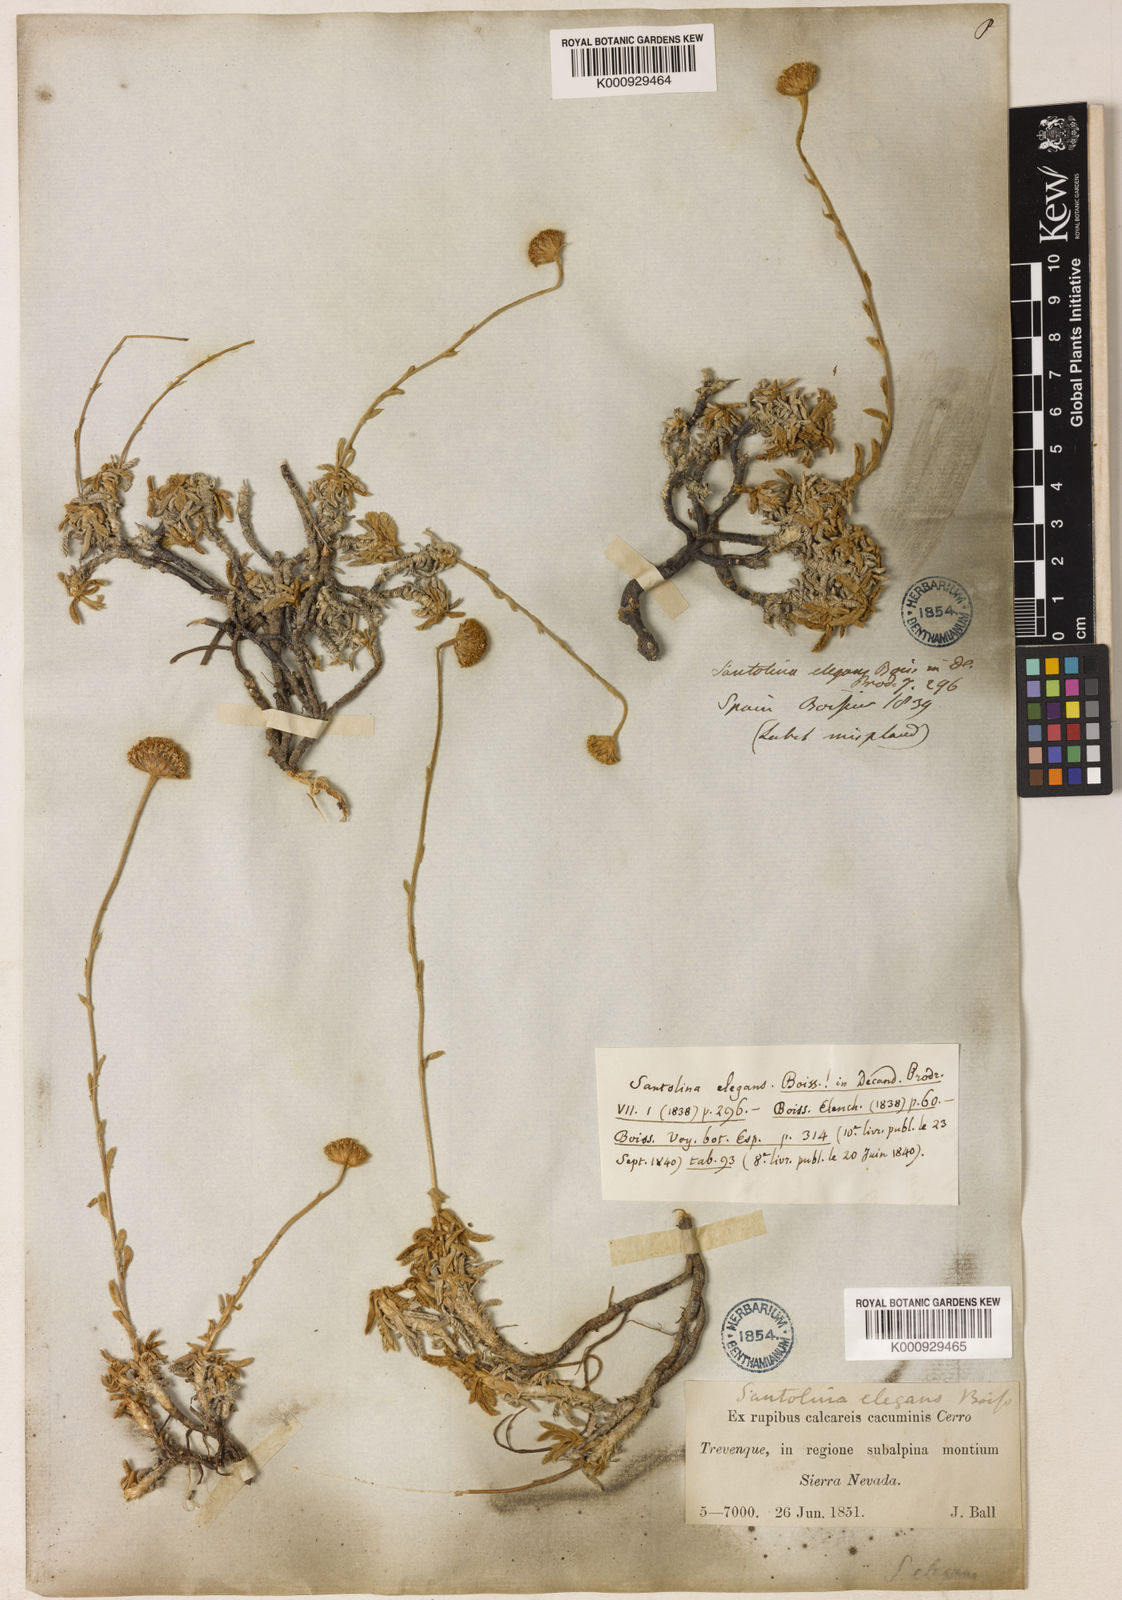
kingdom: Plantae
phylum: Tracheophyta
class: Magnoliopsida
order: Asterales
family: Asteraceae
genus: Santolina
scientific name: Santolina elegans
